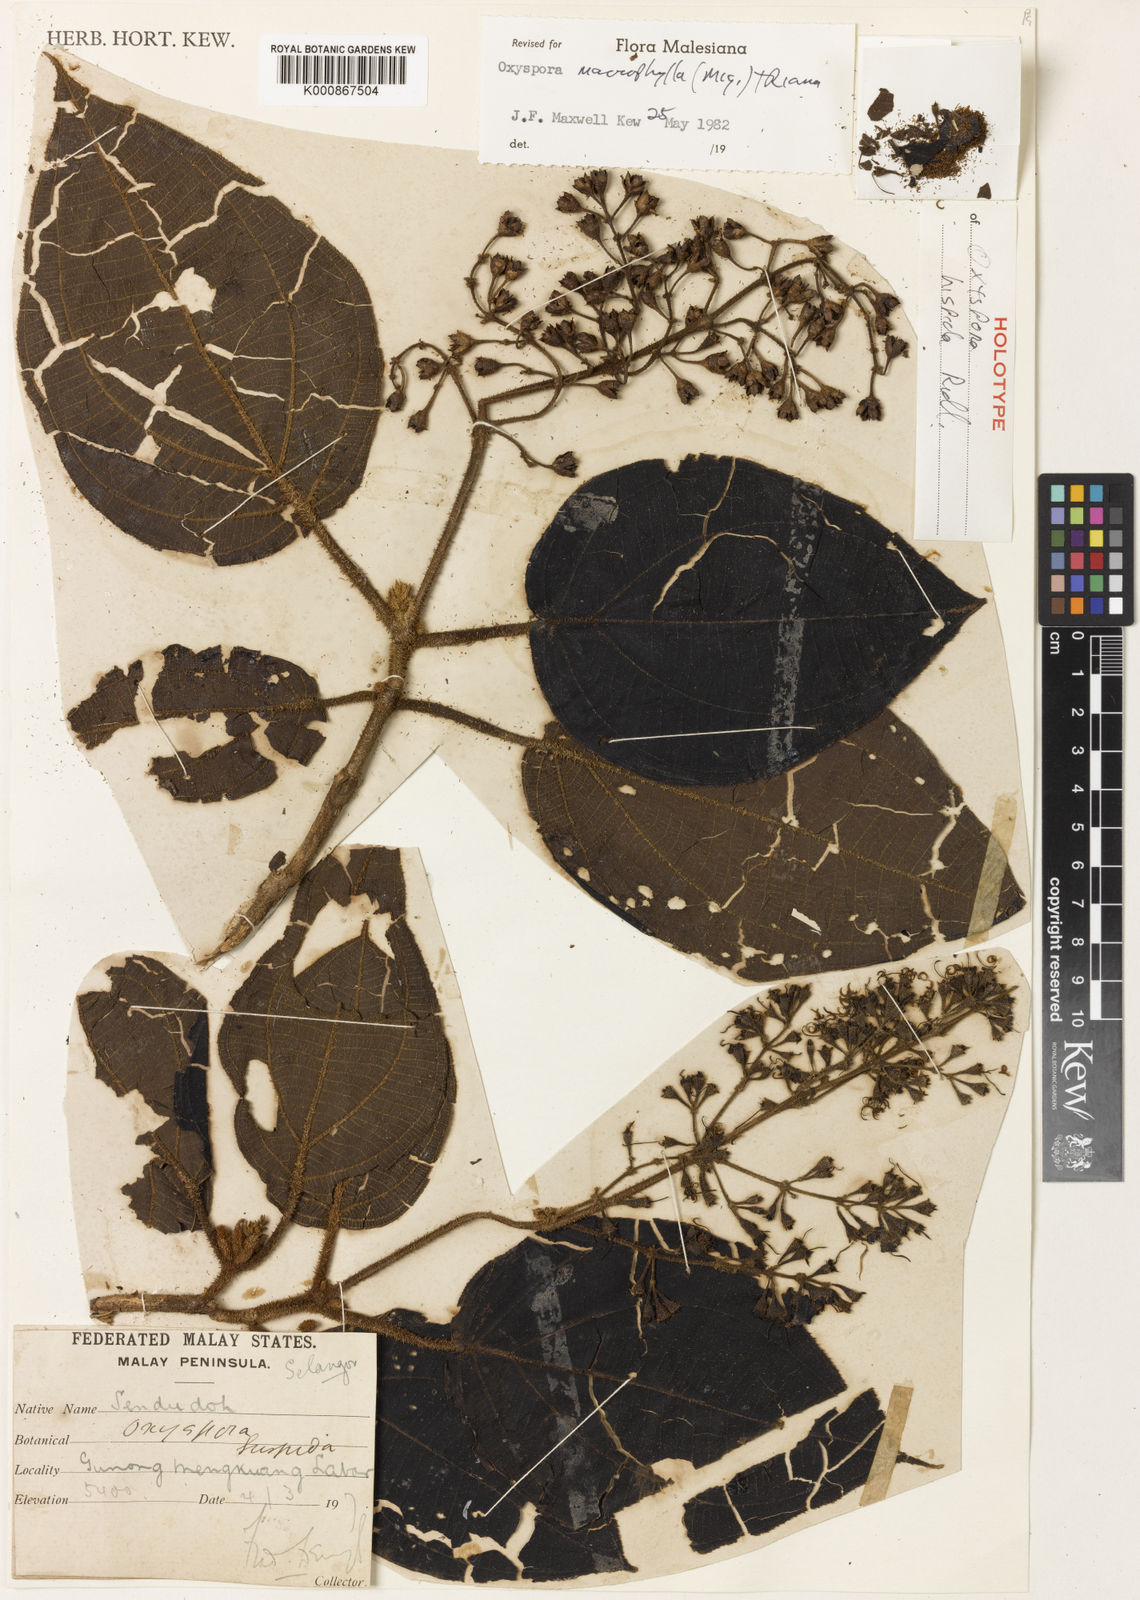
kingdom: Plantae
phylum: Tracheophyta
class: Magnoliopsida
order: Myrtales
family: Melastomataceae
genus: Hylocharis
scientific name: Hylocharis macrophylla
